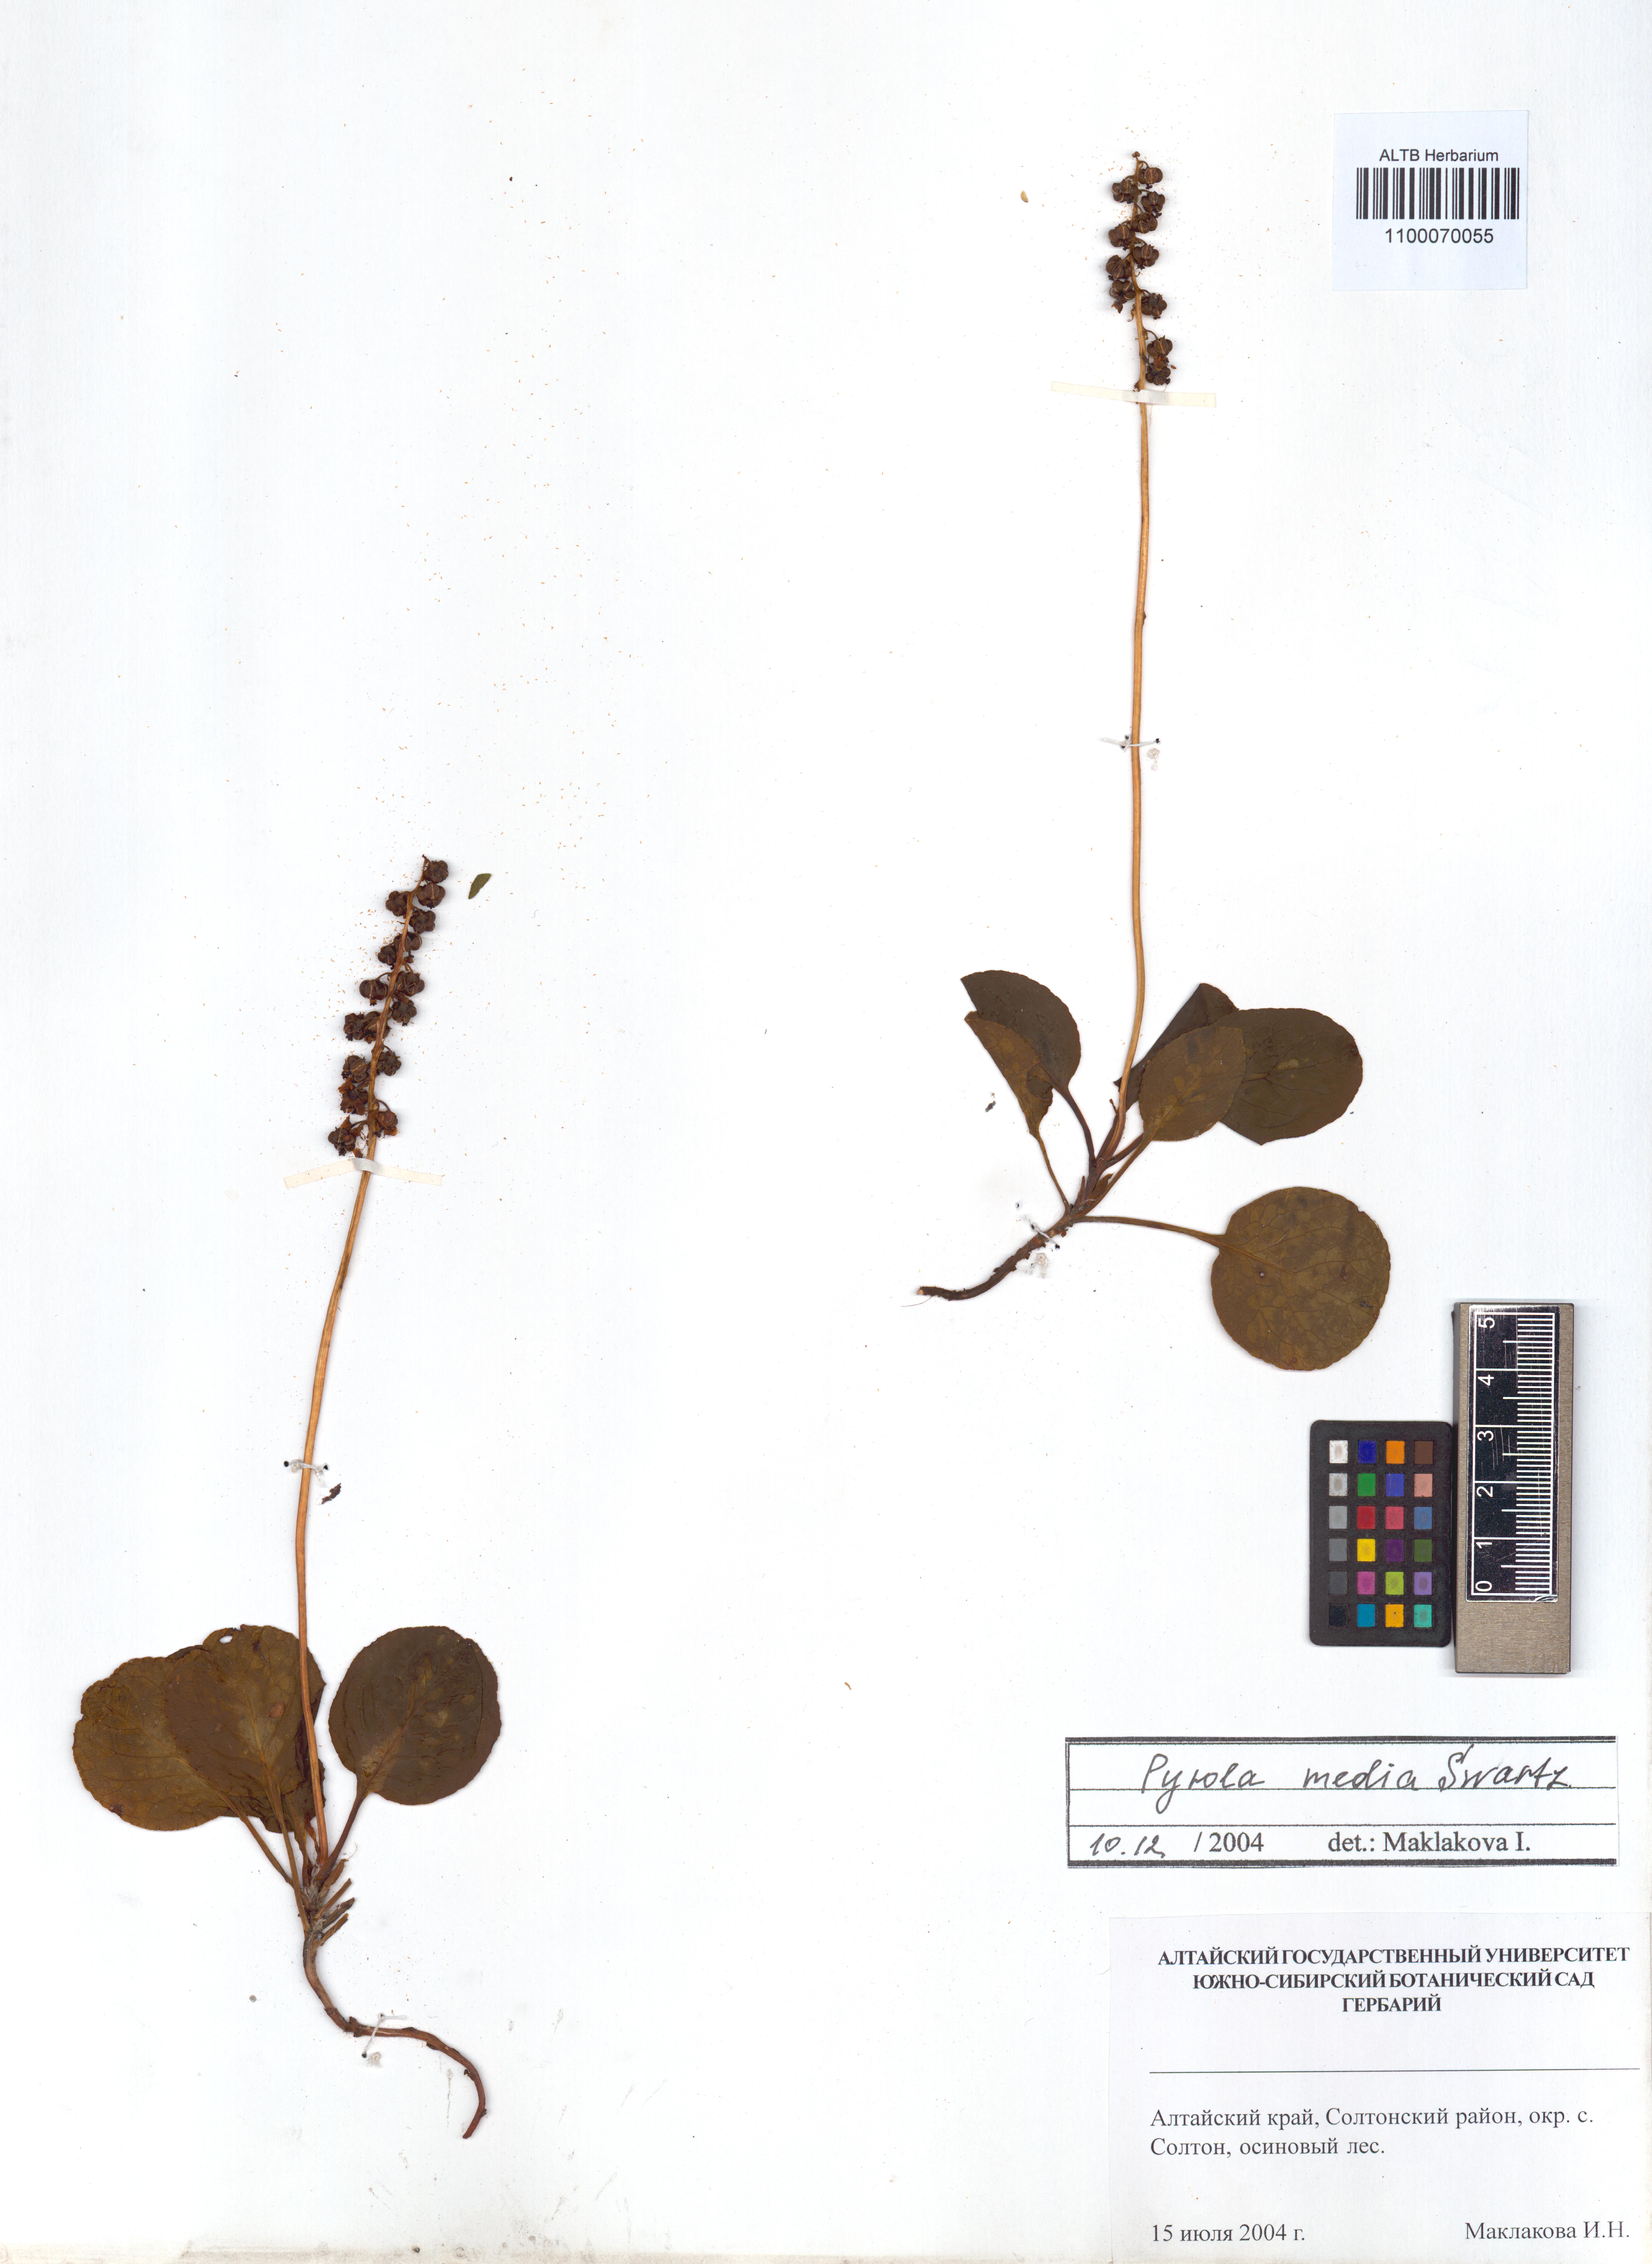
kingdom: Plantae
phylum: Tracheophyta
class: Magnoliopsida
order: Ericales
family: Ericaceae
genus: Pyrola
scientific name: Pyrola media
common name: Intermediate wintergreen
